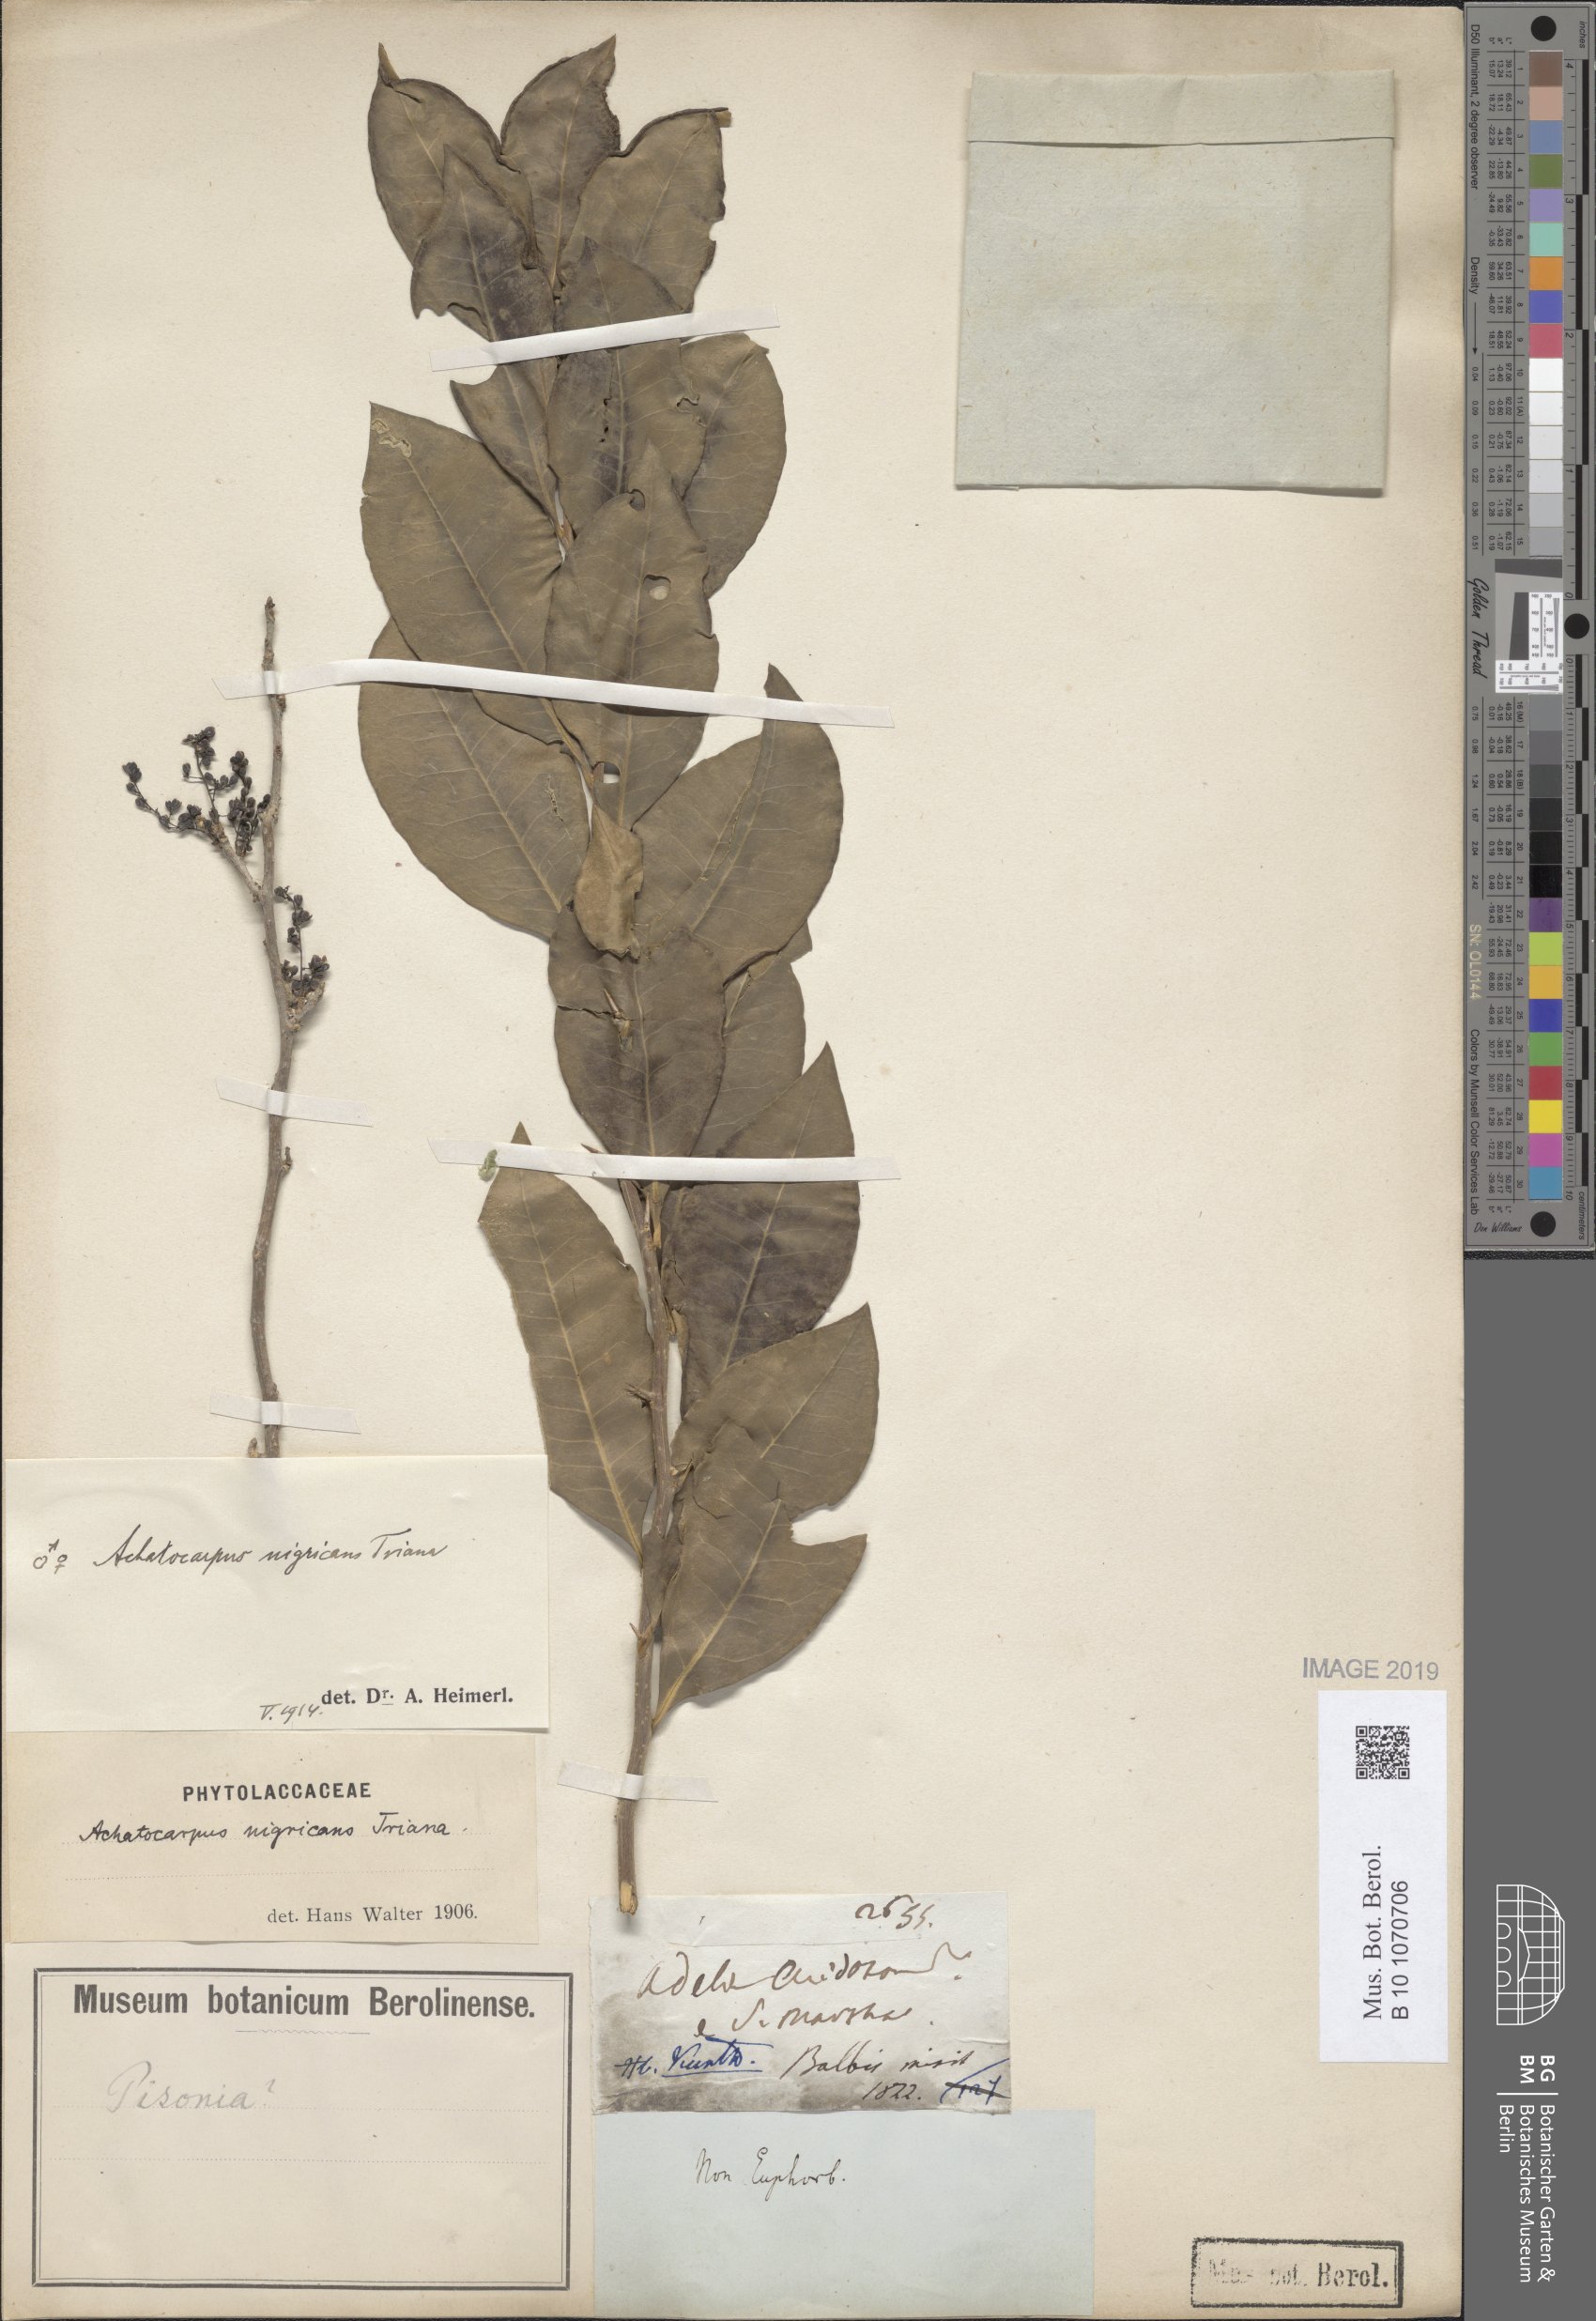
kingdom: Plantae
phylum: Tracheophyta
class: Magnoliopsida
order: Caryophyllales
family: Achatocarpaceae
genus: Achatocarpus
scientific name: Achatocarpus nigricans
